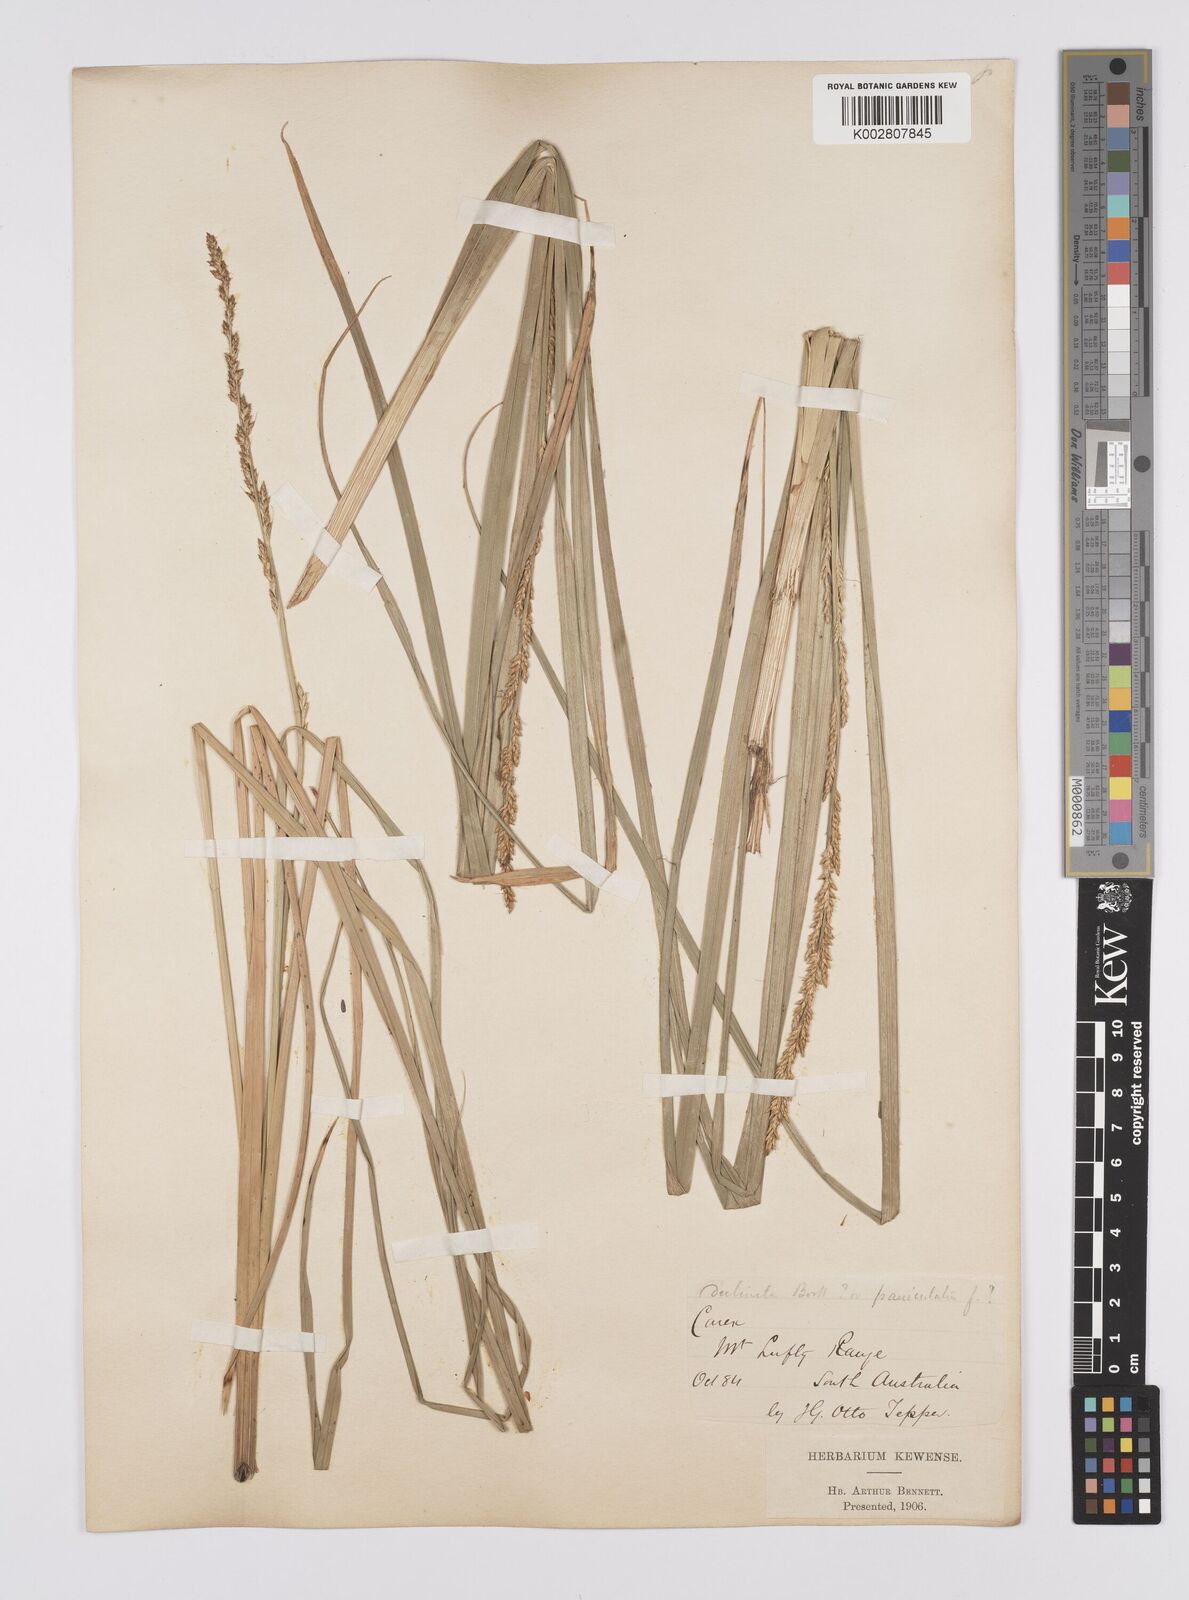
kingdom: Plantae
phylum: Tracheophyta
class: Liliopsida
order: Poales
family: Cyperaceae
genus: Carex
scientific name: Carex appressa
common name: Tussock sedge
